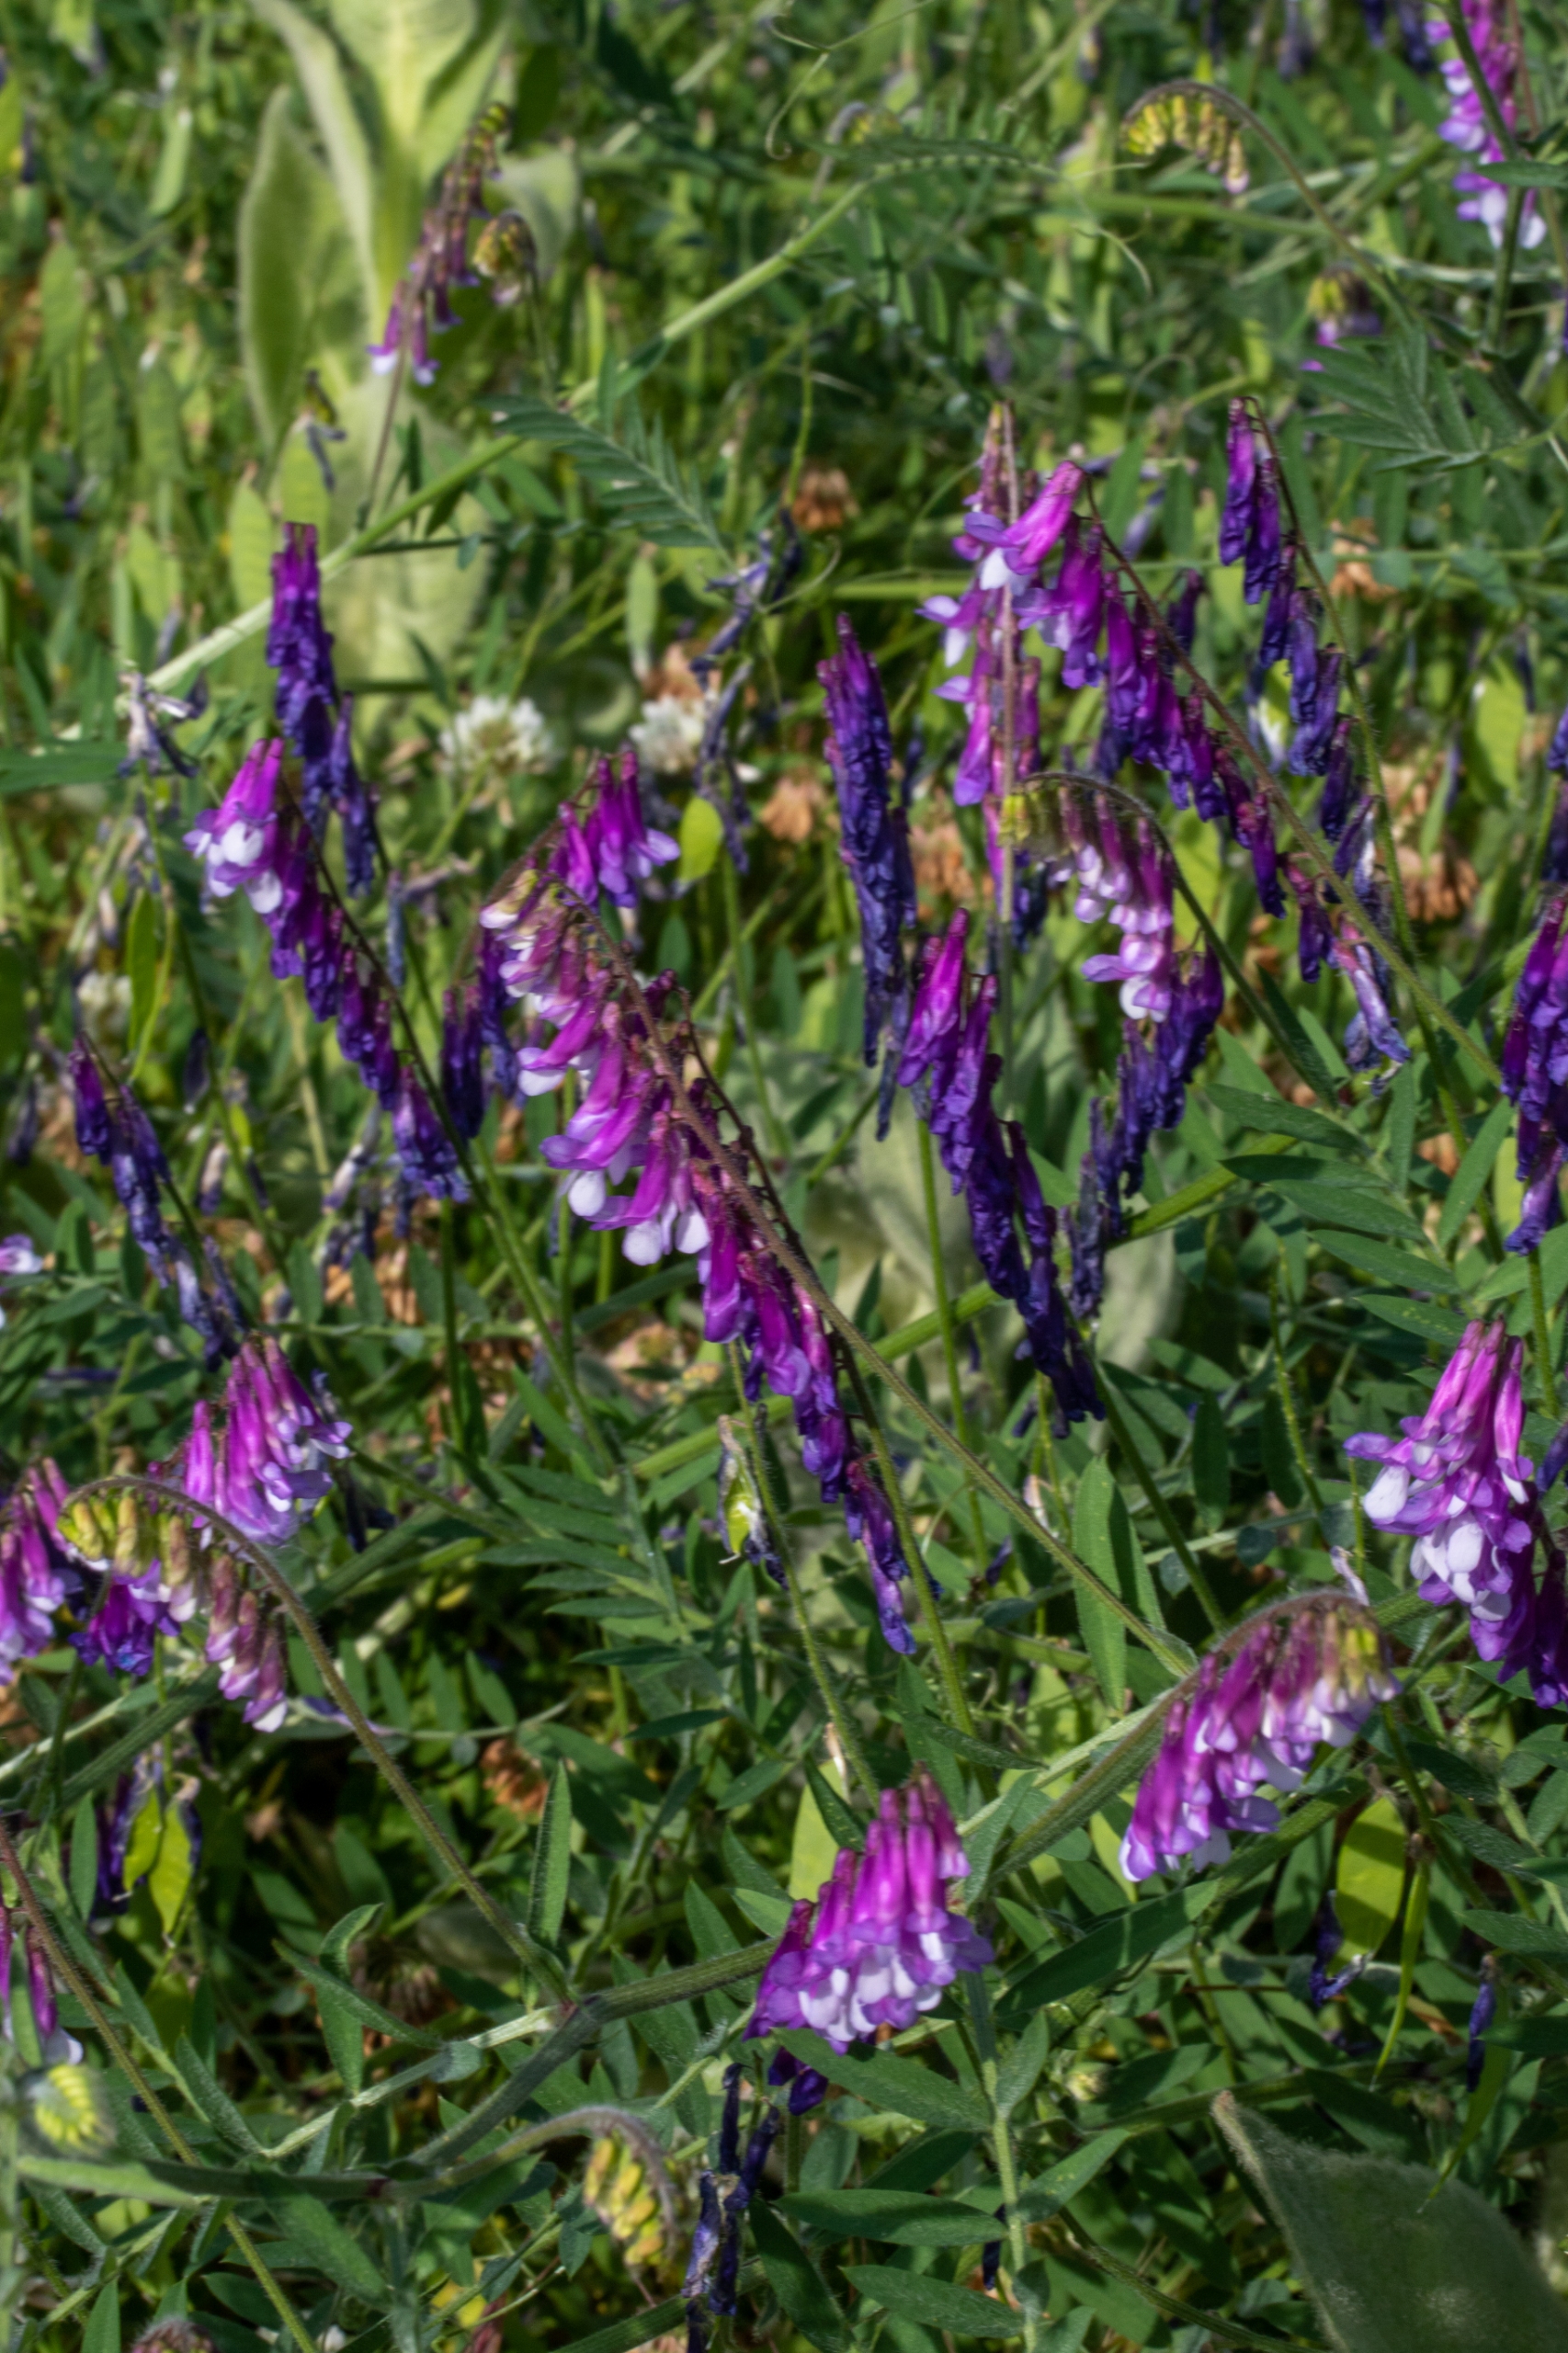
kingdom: Plantae
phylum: Tracheophyta
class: Magnoliopsida
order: Fabales
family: Fabaceae
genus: Vicia
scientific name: Vicia villosa
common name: Sand-vikke
